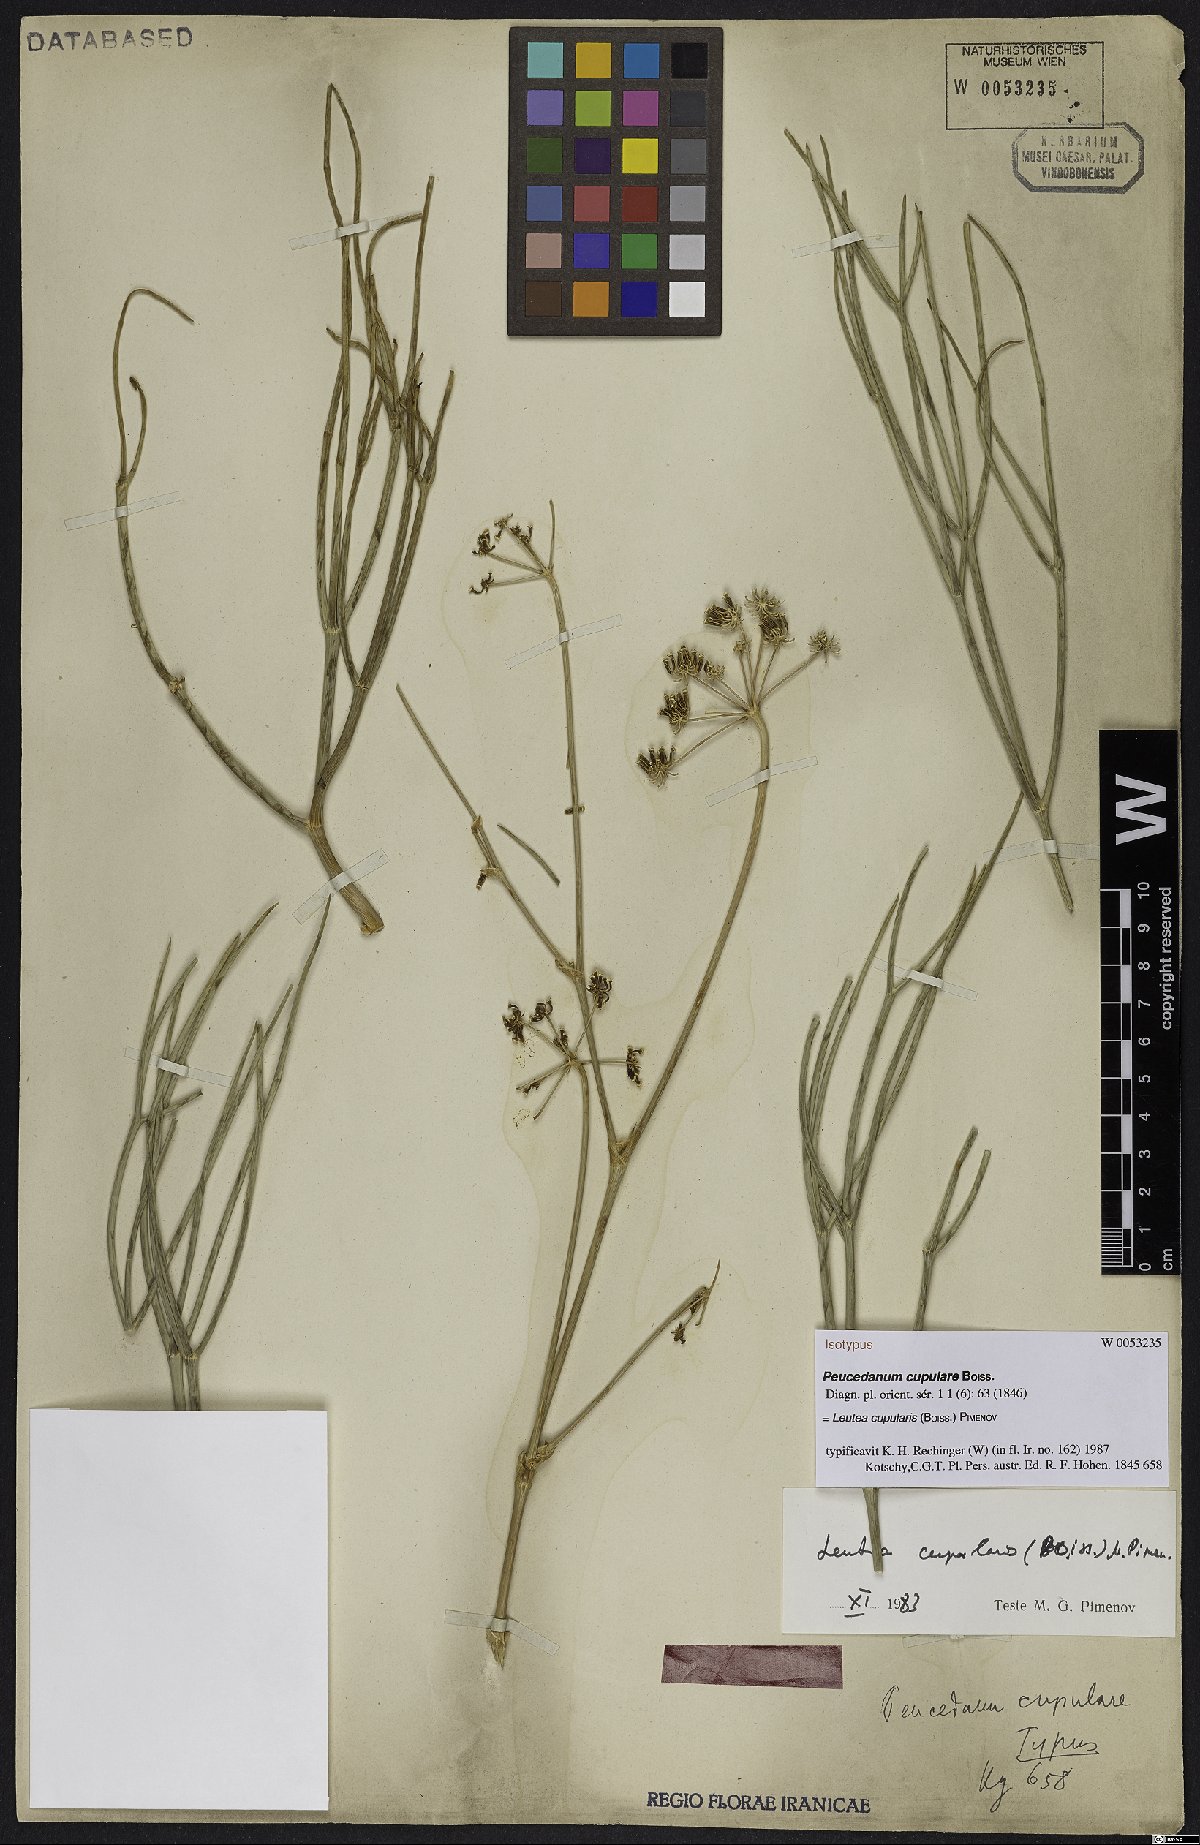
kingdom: Plantae
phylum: Tracheophyta
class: Magnoliopsida
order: Apiales
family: Apiaceae
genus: Ferula
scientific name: Ferula cupularis
